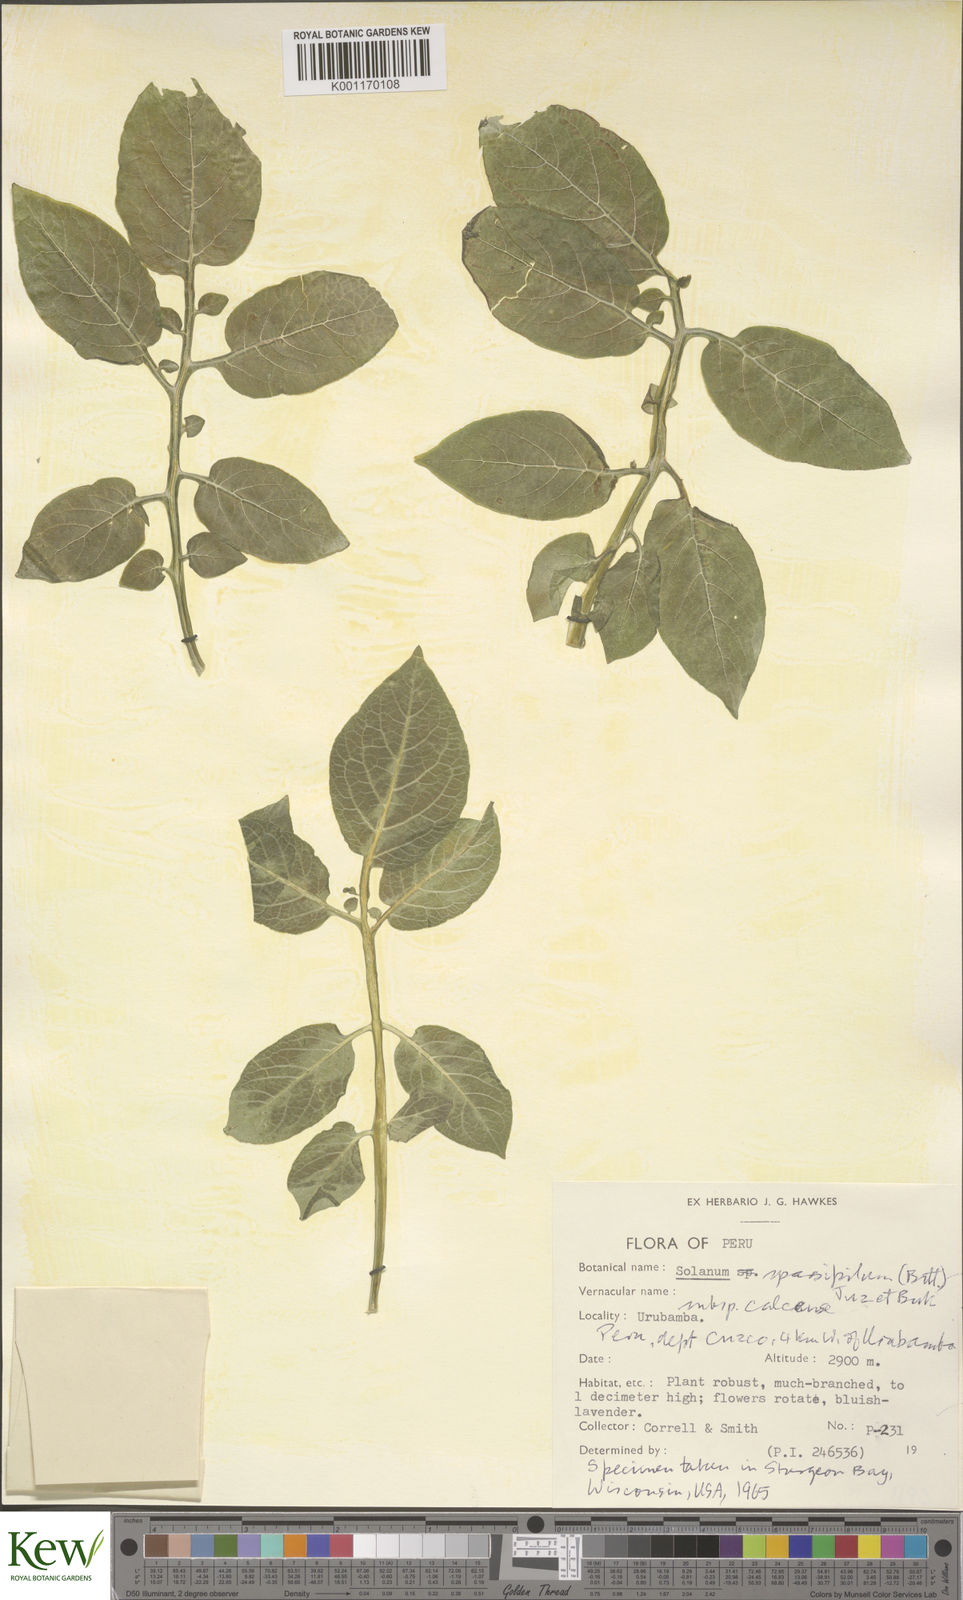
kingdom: Plantae
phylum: Tracheophyta
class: Magnoliopsida
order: Solanales
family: Solanaceae
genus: Solanum
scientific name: Solanum brevicaule
